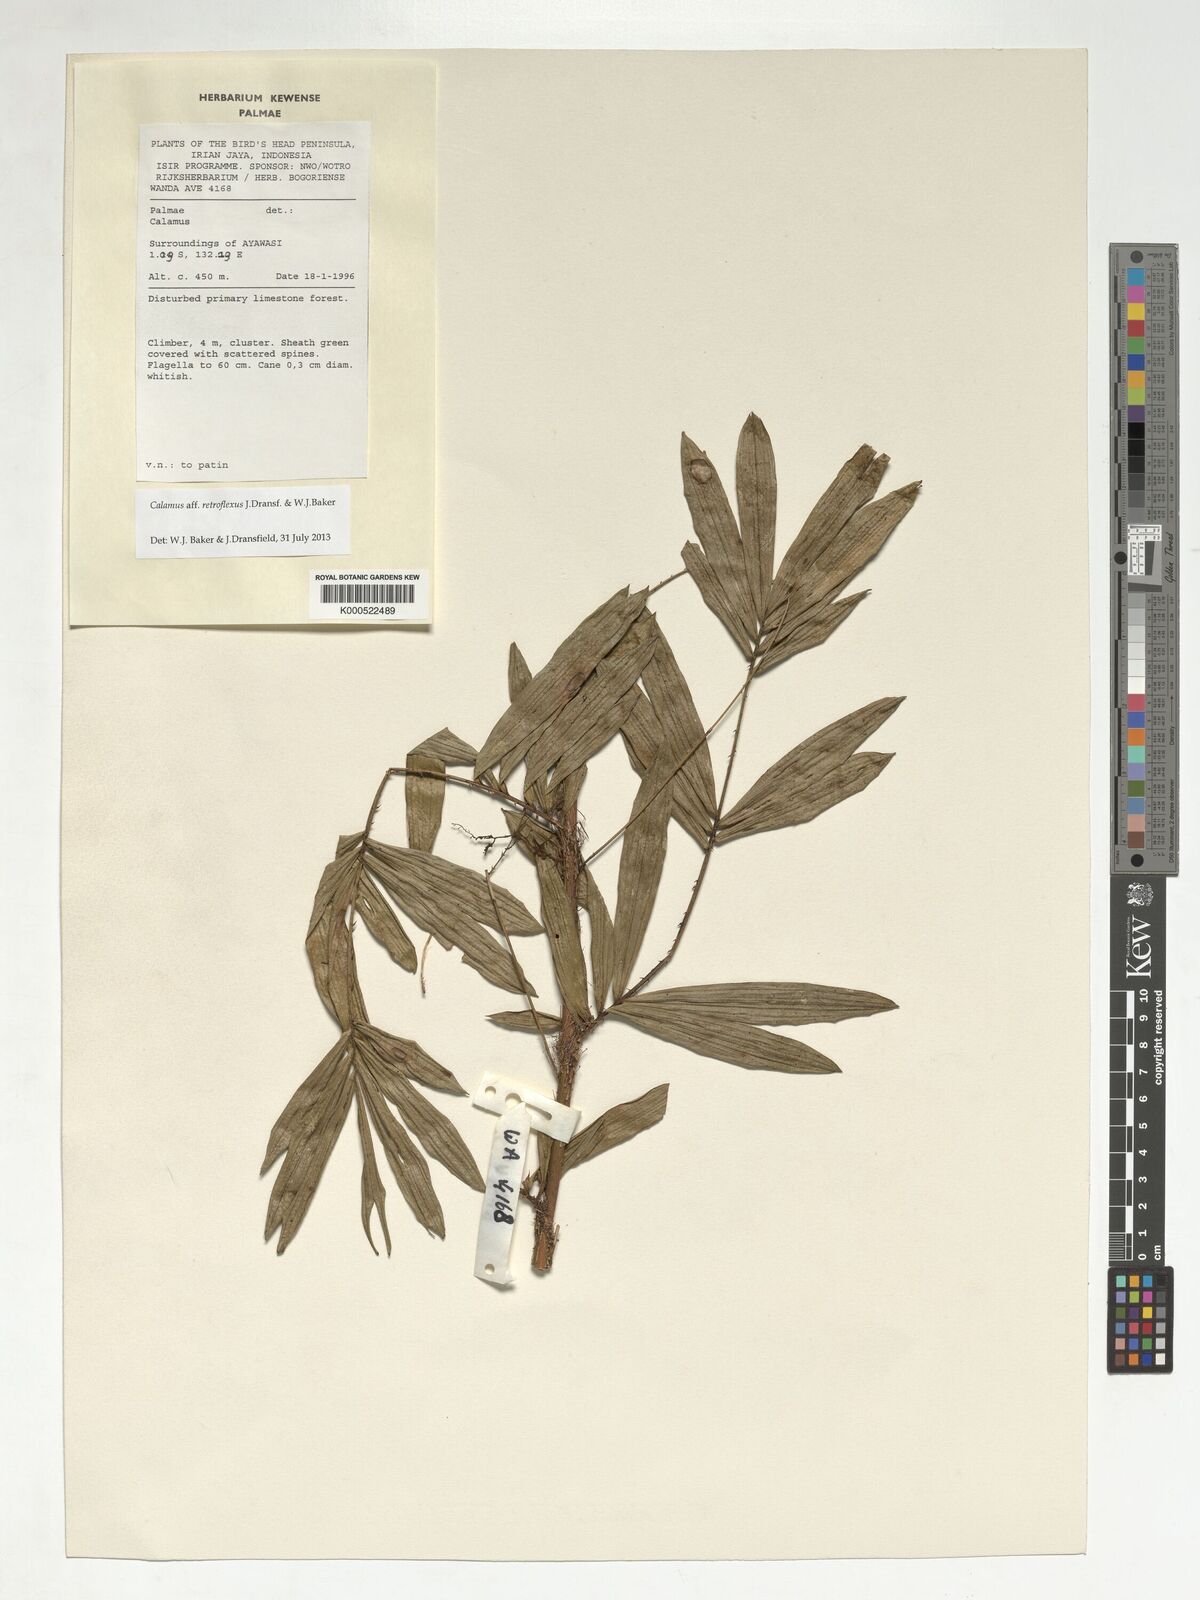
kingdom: Plantae
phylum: Tracheophyta
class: Liliopsida
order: Arecales
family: Arecaceae
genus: Calamus
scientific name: Calamus
